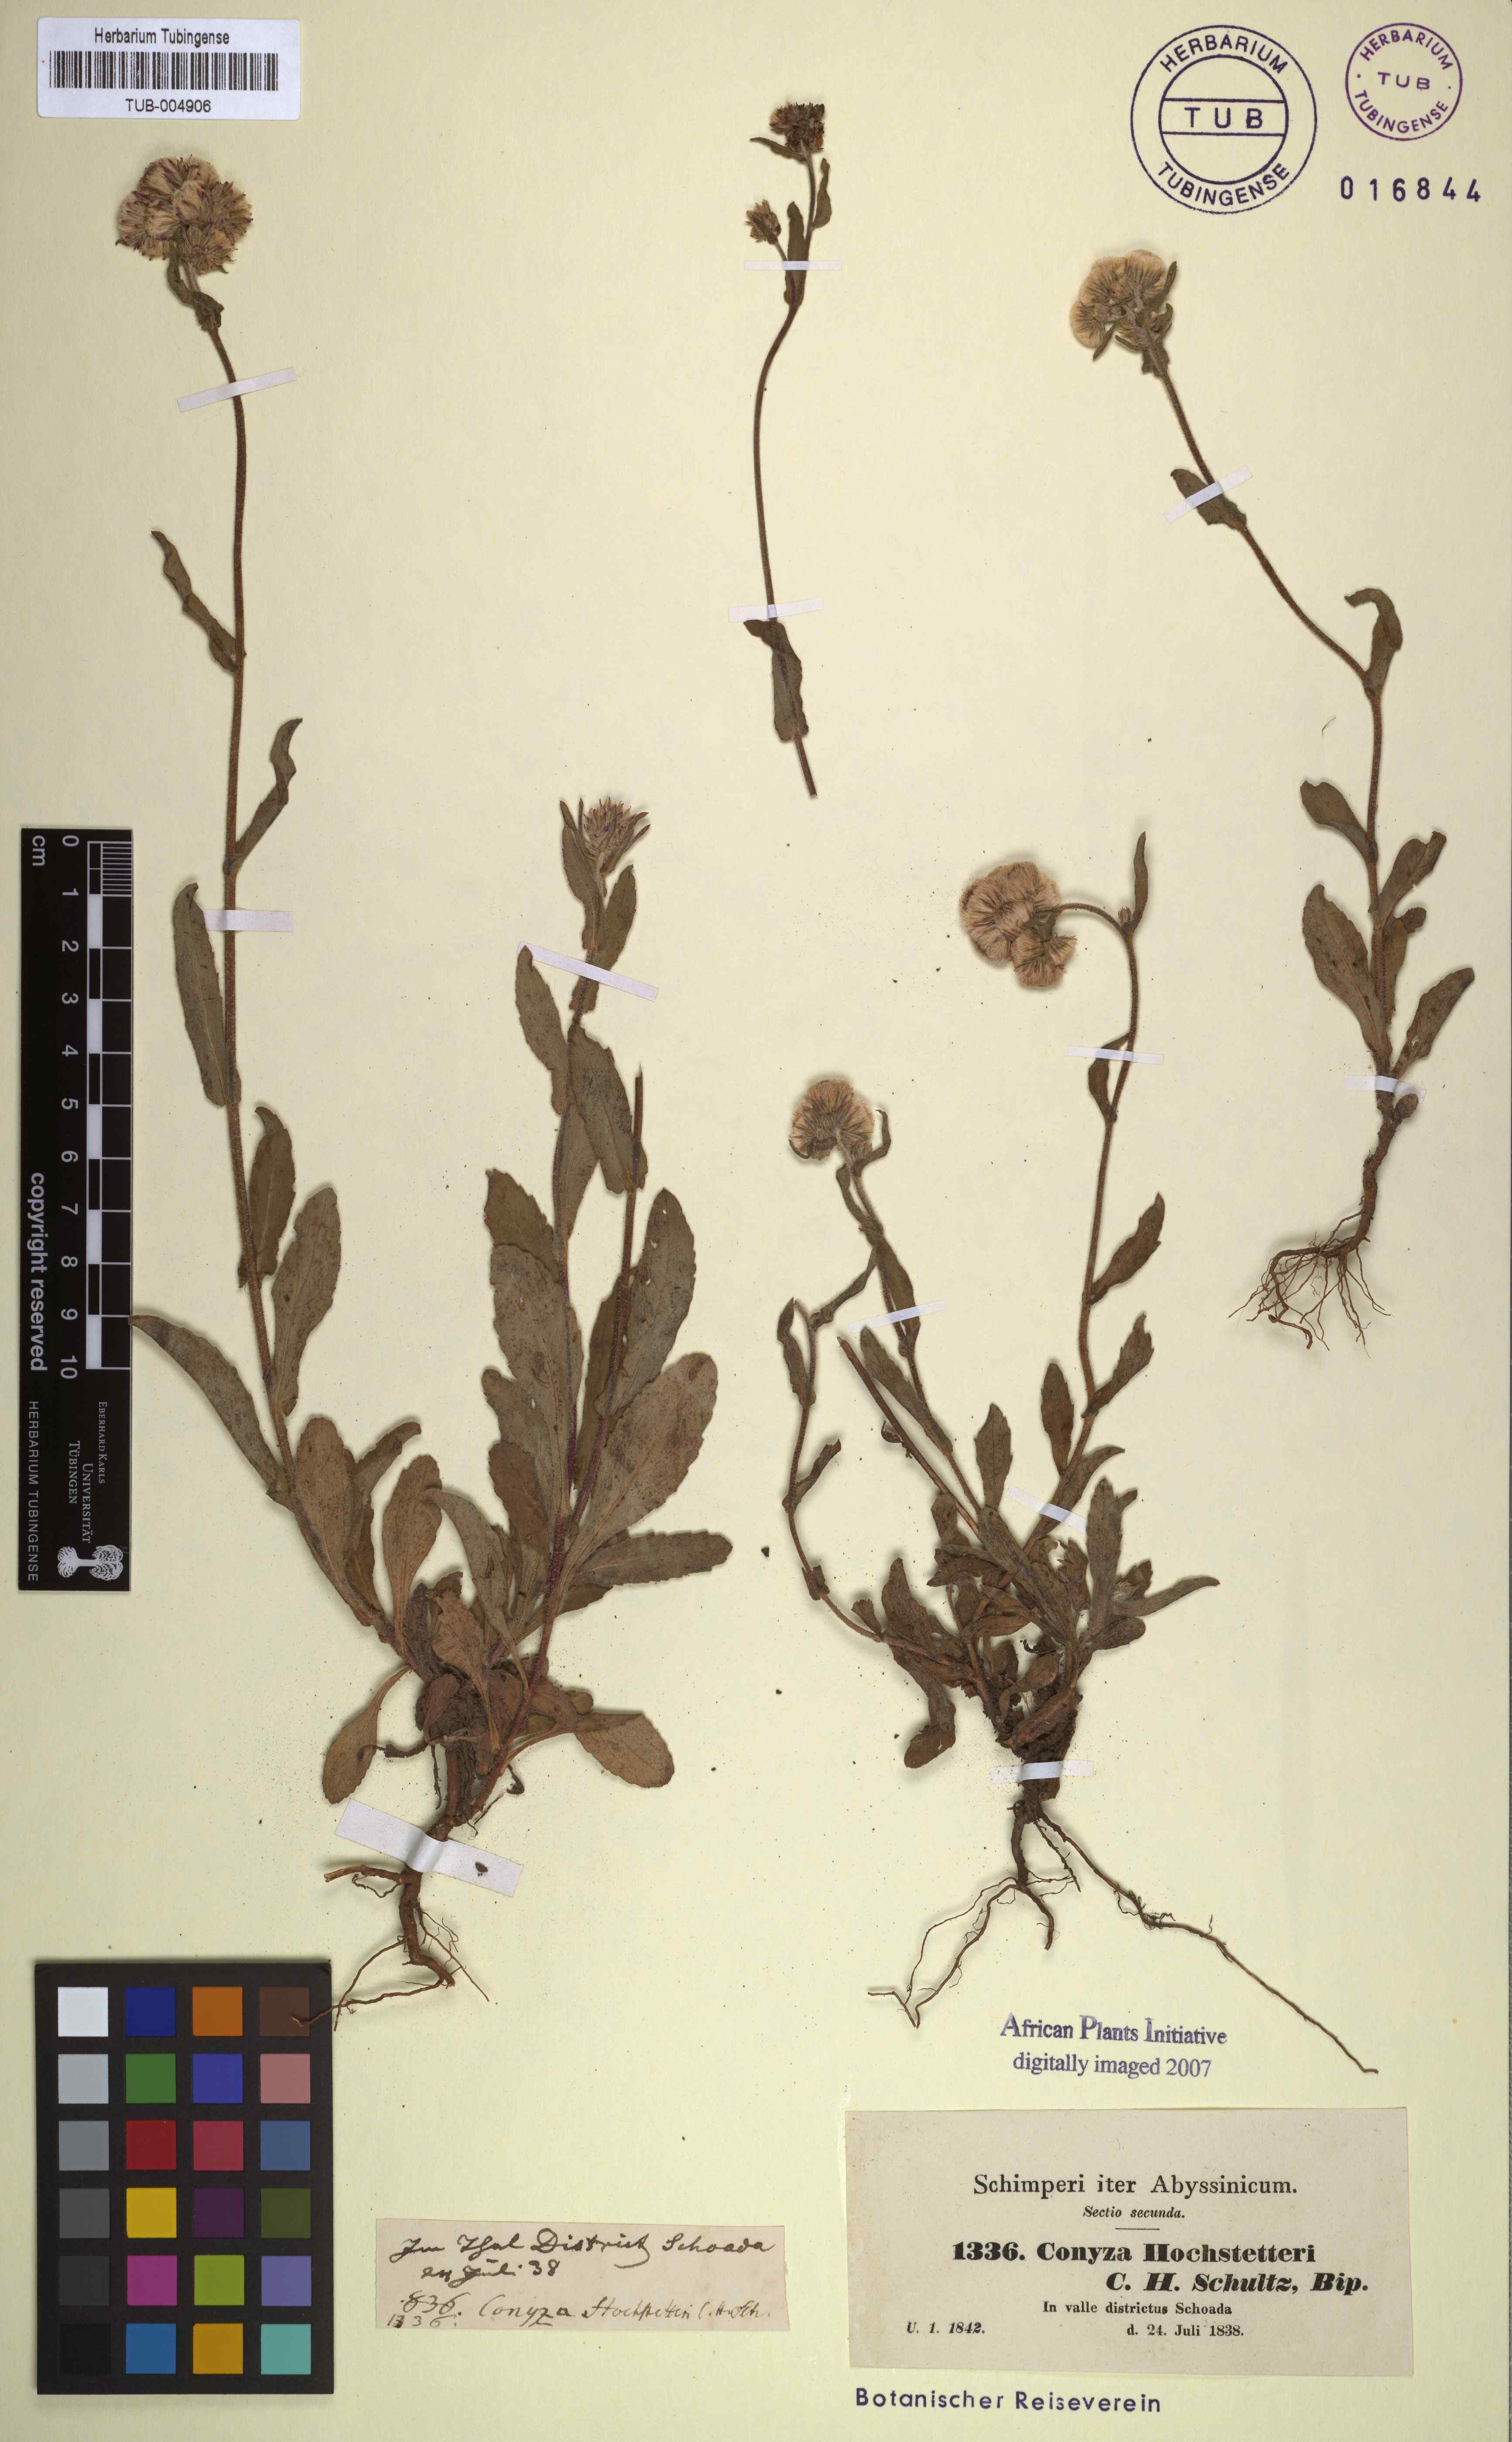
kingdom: Plantae
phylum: Tracheophyta
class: Magnoliopsida
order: Asterales
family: Asteraceae
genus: Eschenbachia
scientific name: Eschenbachia gouanii
